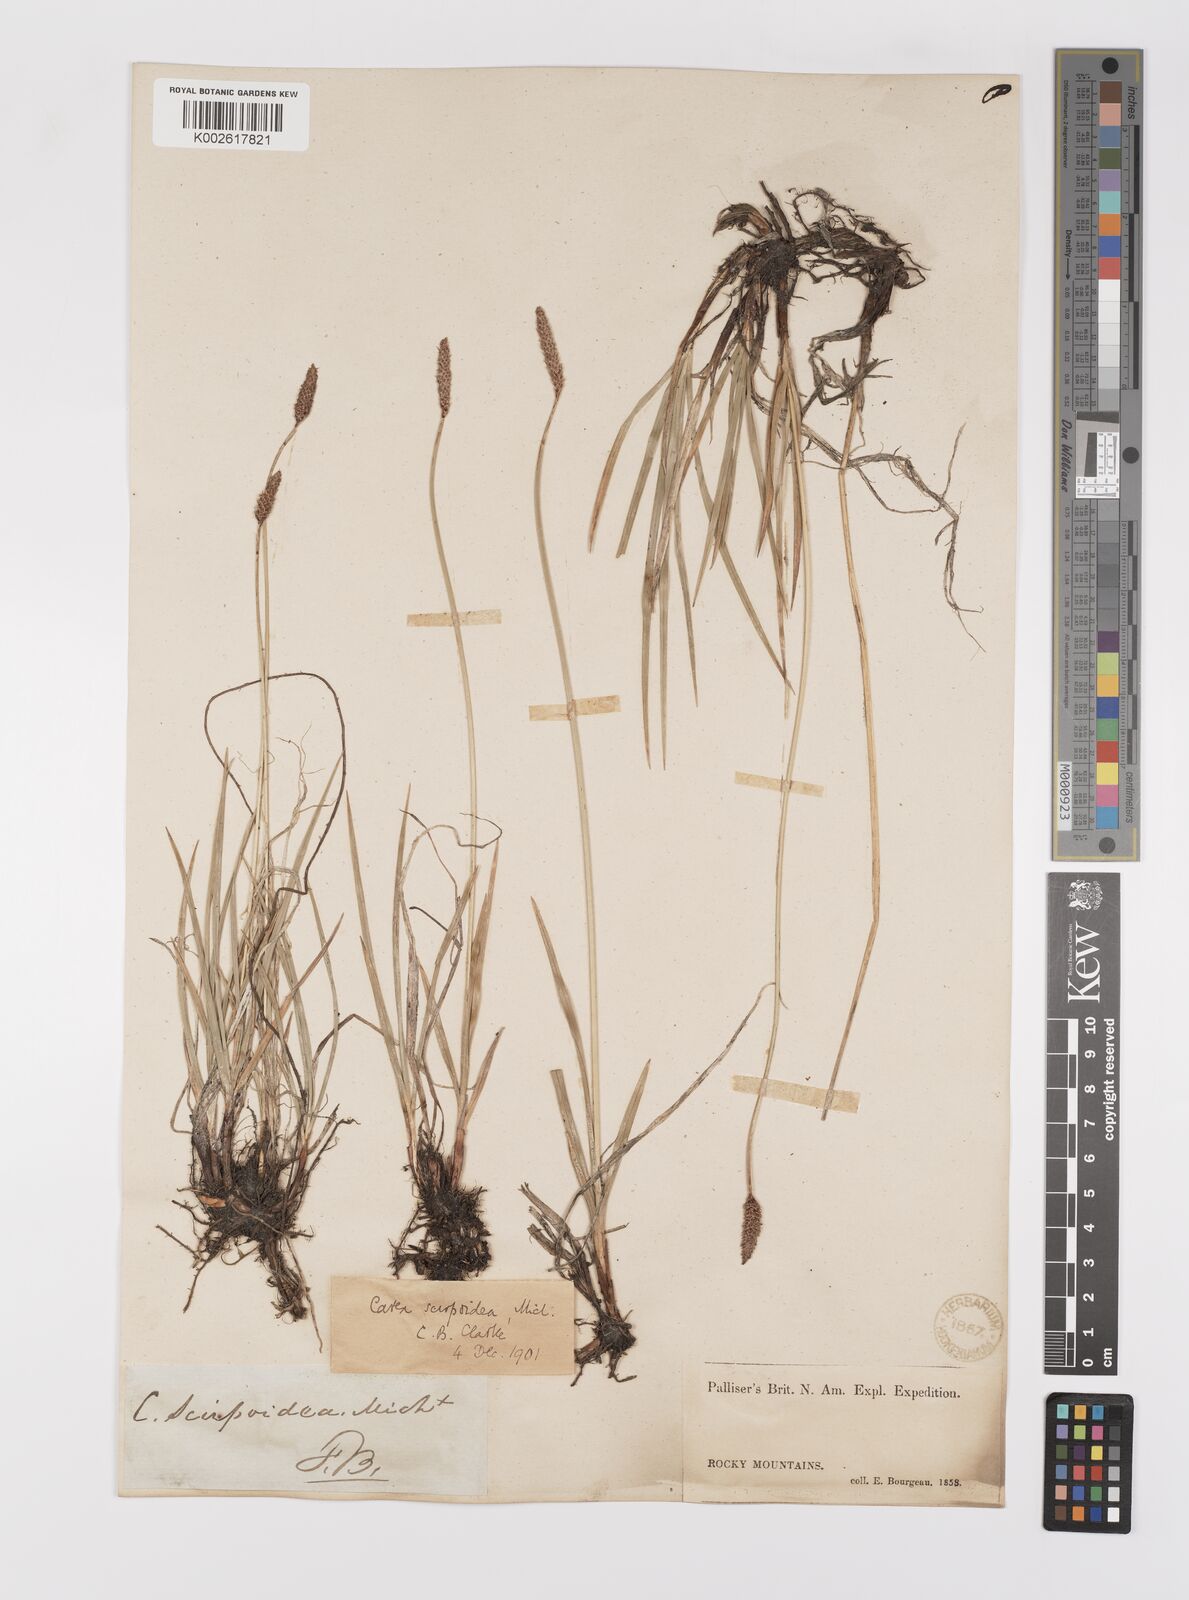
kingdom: Plantae
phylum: Tracheophyta
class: Liliopsida
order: Poales
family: Cyperaceae
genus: Carex
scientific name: Carex scirpoidea
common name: Canada single-spike sedge
